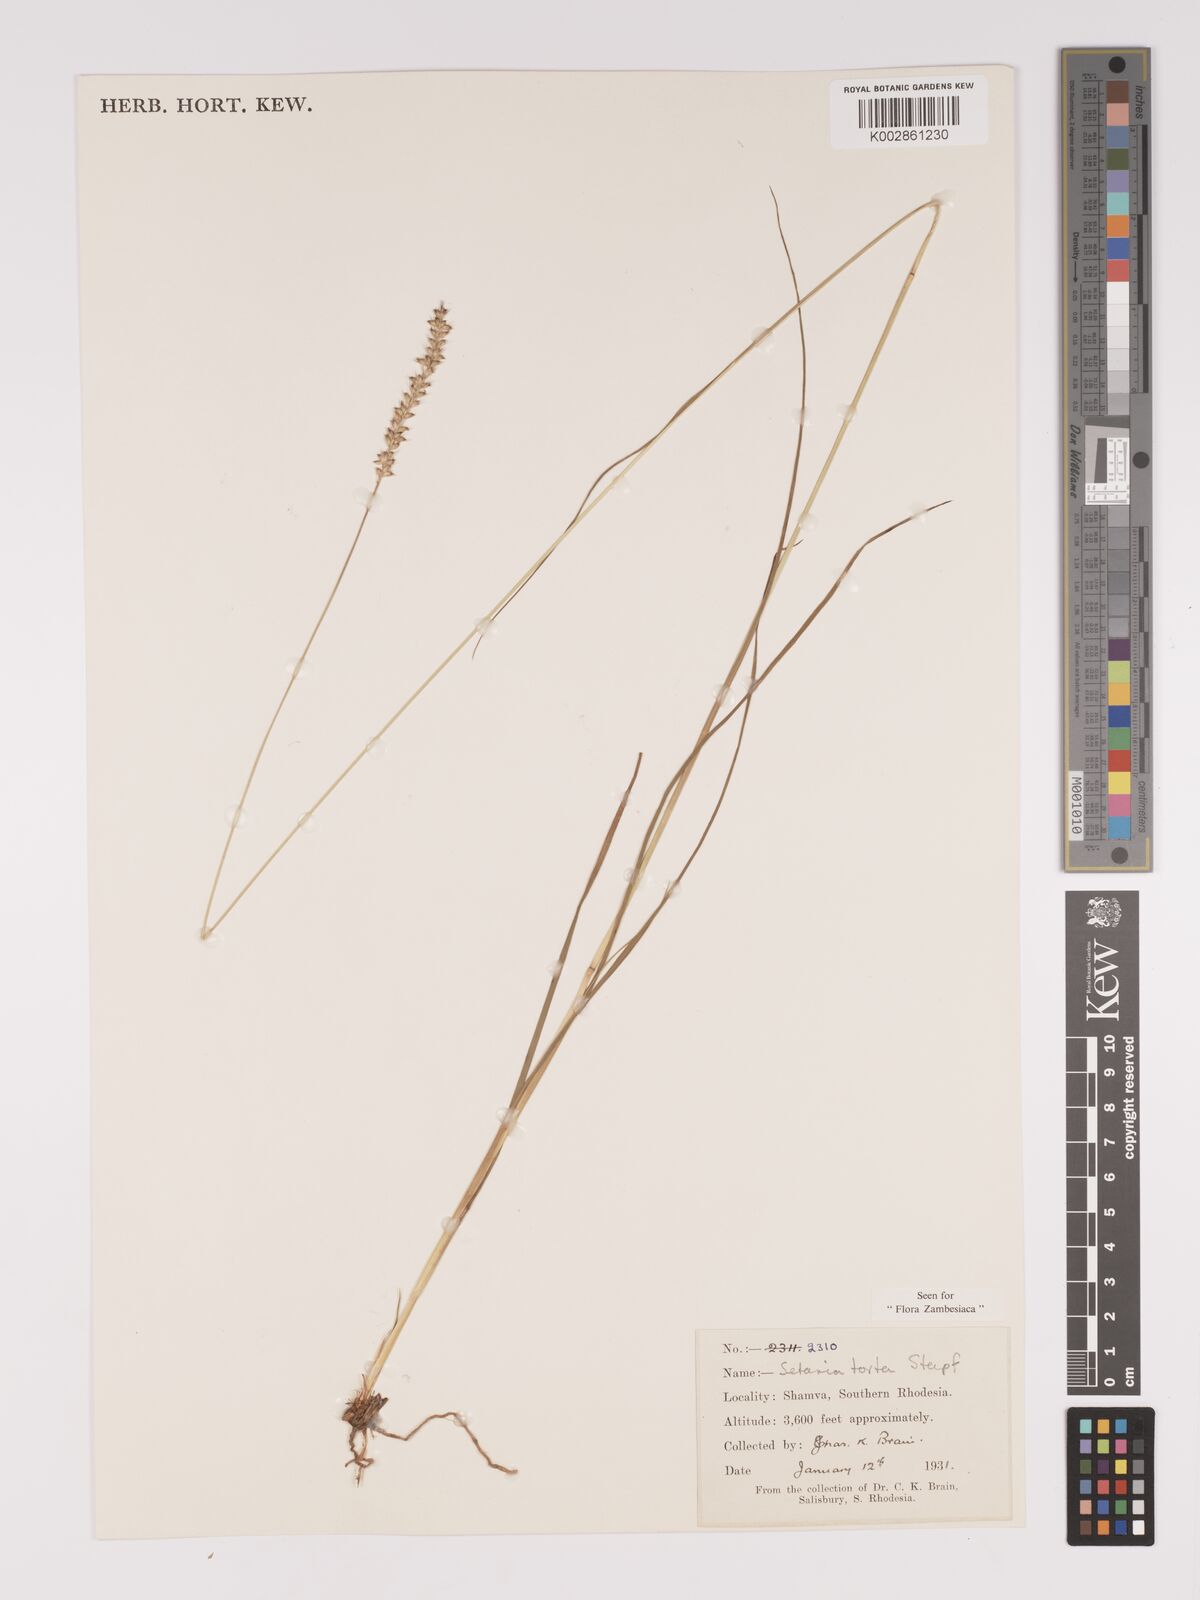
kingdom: Plantae
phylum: Tracheophyta
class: Liliopsida
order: Poales
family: Poaceae
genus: Setaria
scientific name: Setaria sphacelata
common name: African bristlegrass
